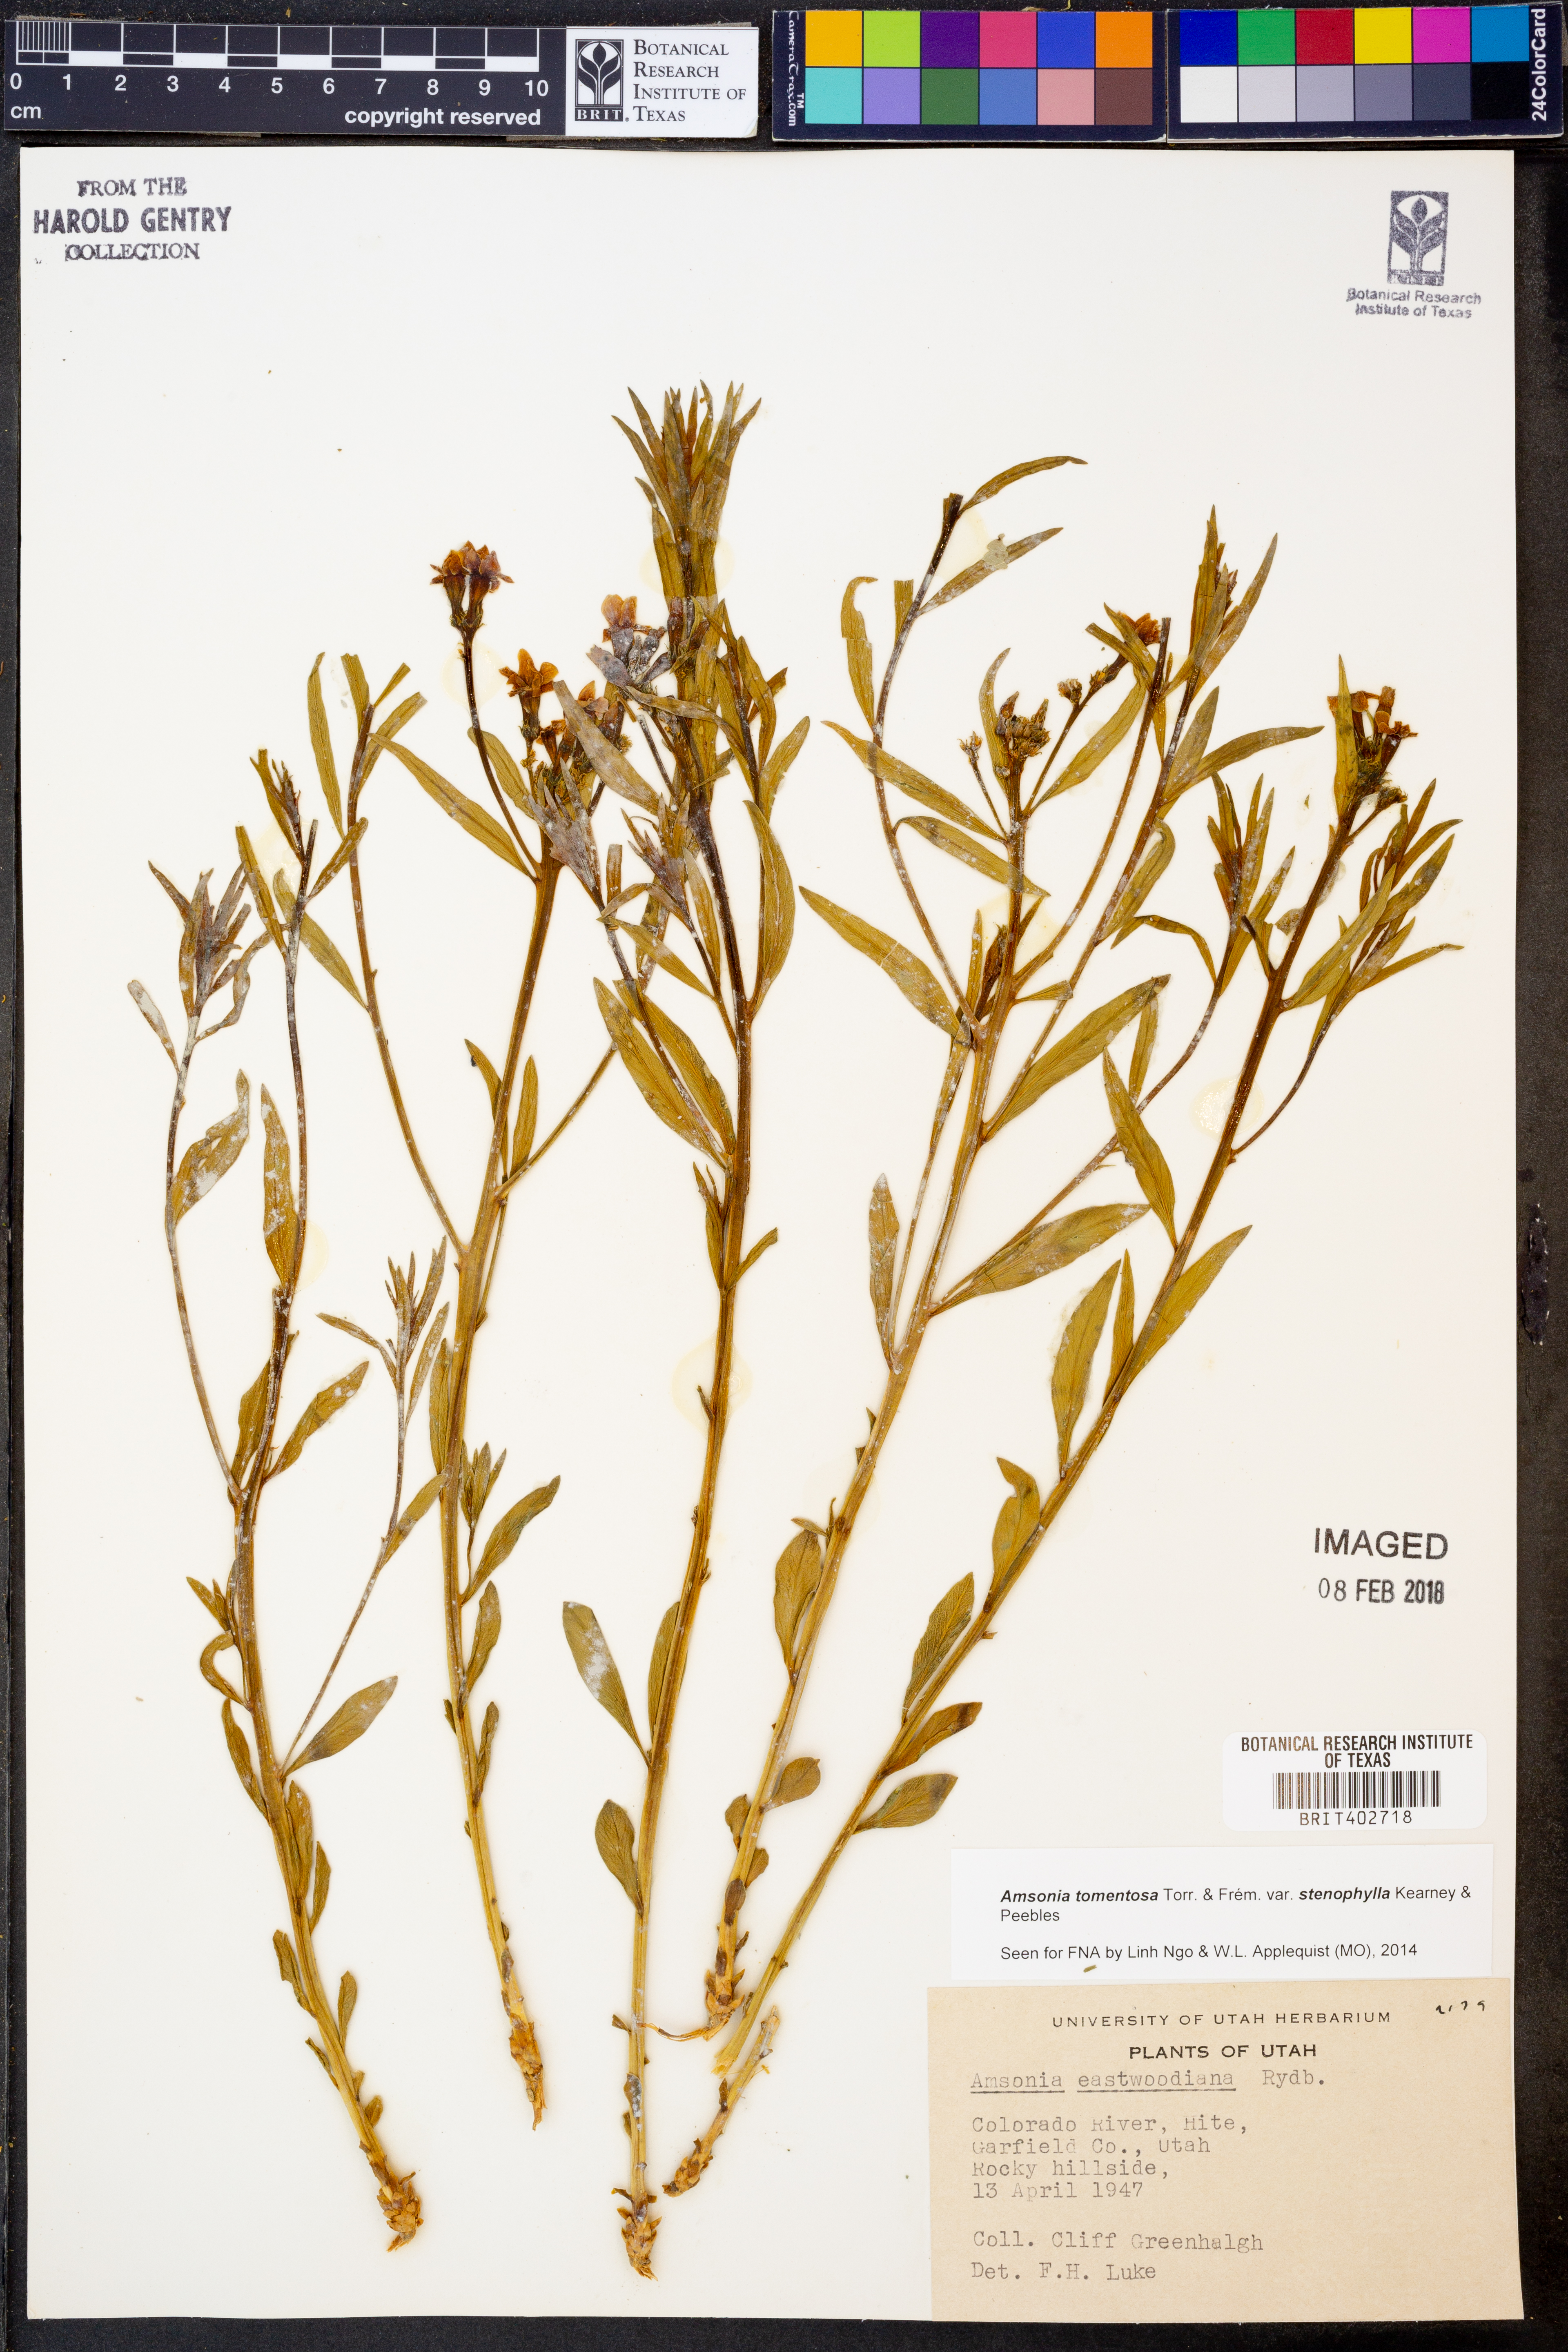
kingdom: Plantae
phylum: Tracheophyta
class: Magnoliopsida
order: Gentianales
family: Apocynaceae
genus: Amsonia
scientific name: Amsonia tomentosa
